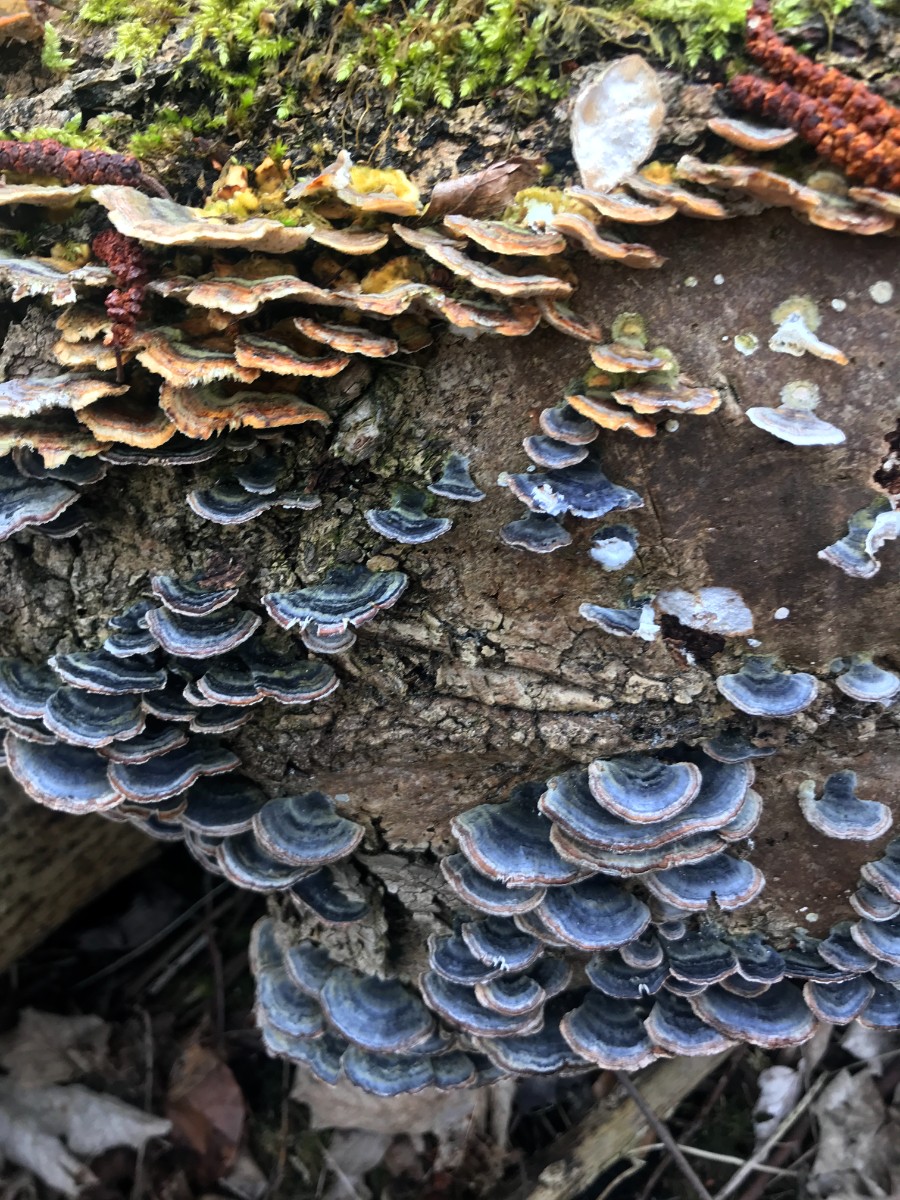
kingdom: Fungi
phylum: Basidiomycota
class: Agaricomycetes
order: Polyporales
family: Polyporaceae
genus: Trametes
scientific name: Trametes versicolor
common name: broget læderporesvamp
